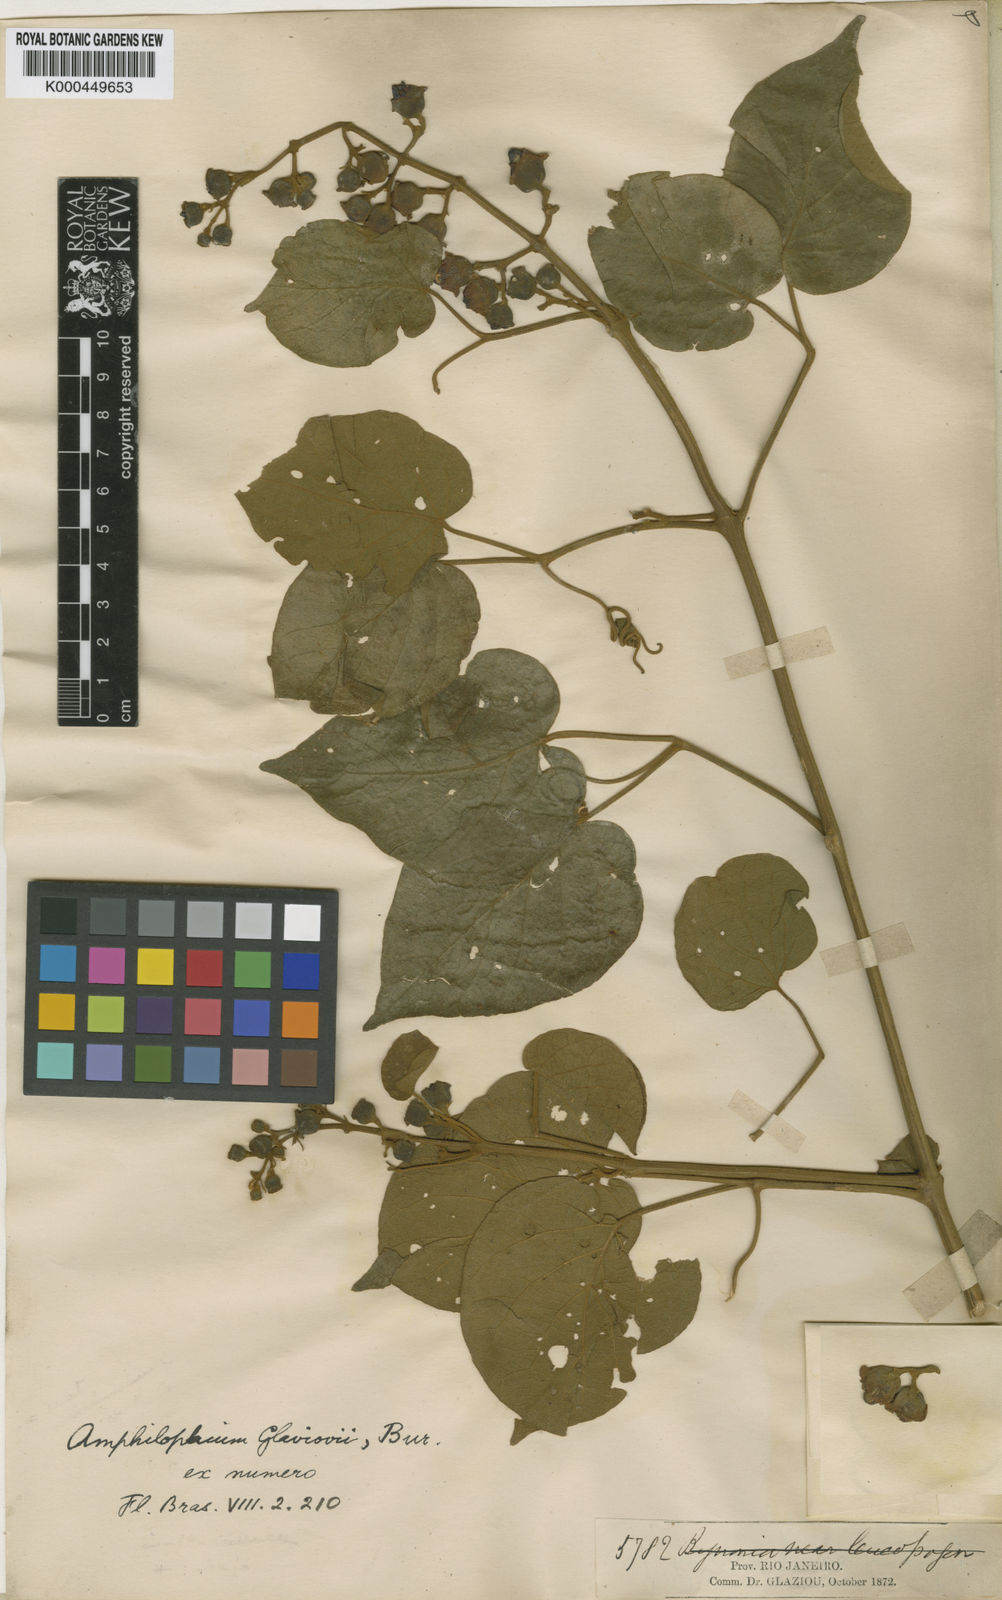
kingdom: Plantae
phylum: Tracheophyta
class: Magnoliopsida
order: Lamiales
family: Bignoniaceae
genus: Amphilophium
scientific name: Amphilophium dusenianum
